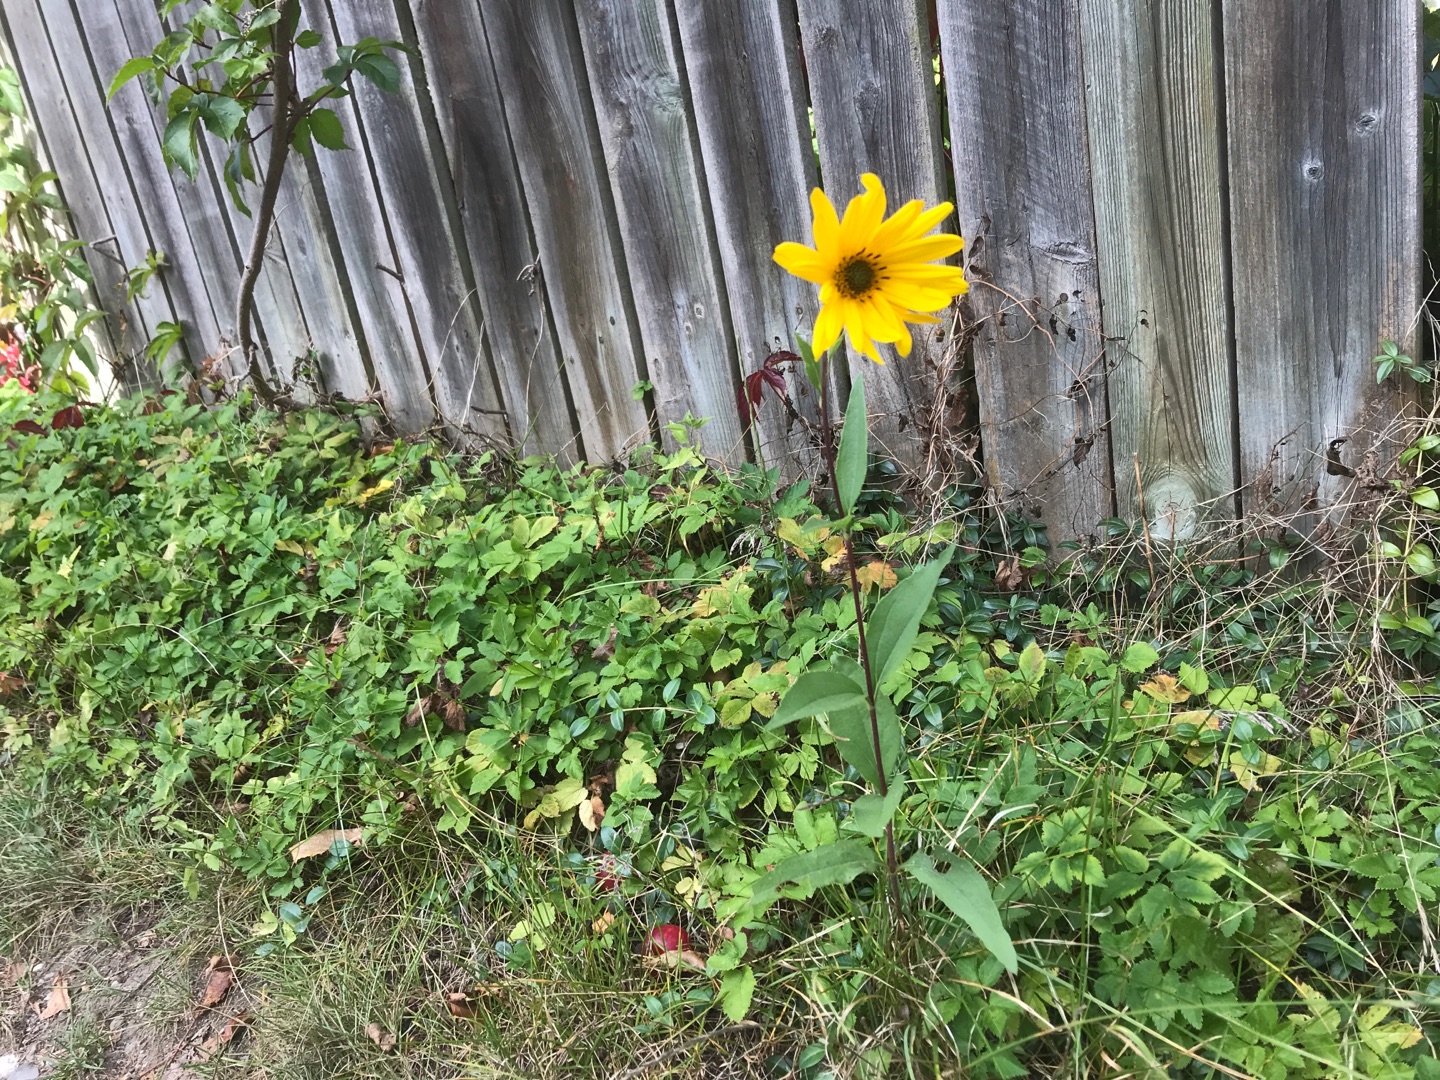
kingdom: Plantae
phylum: Tracheophyta
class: Magnoliopsida
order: Asterales
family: Asteraceae
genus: Helianthus
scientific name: Helianthus tuberosus
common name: Jordskok
